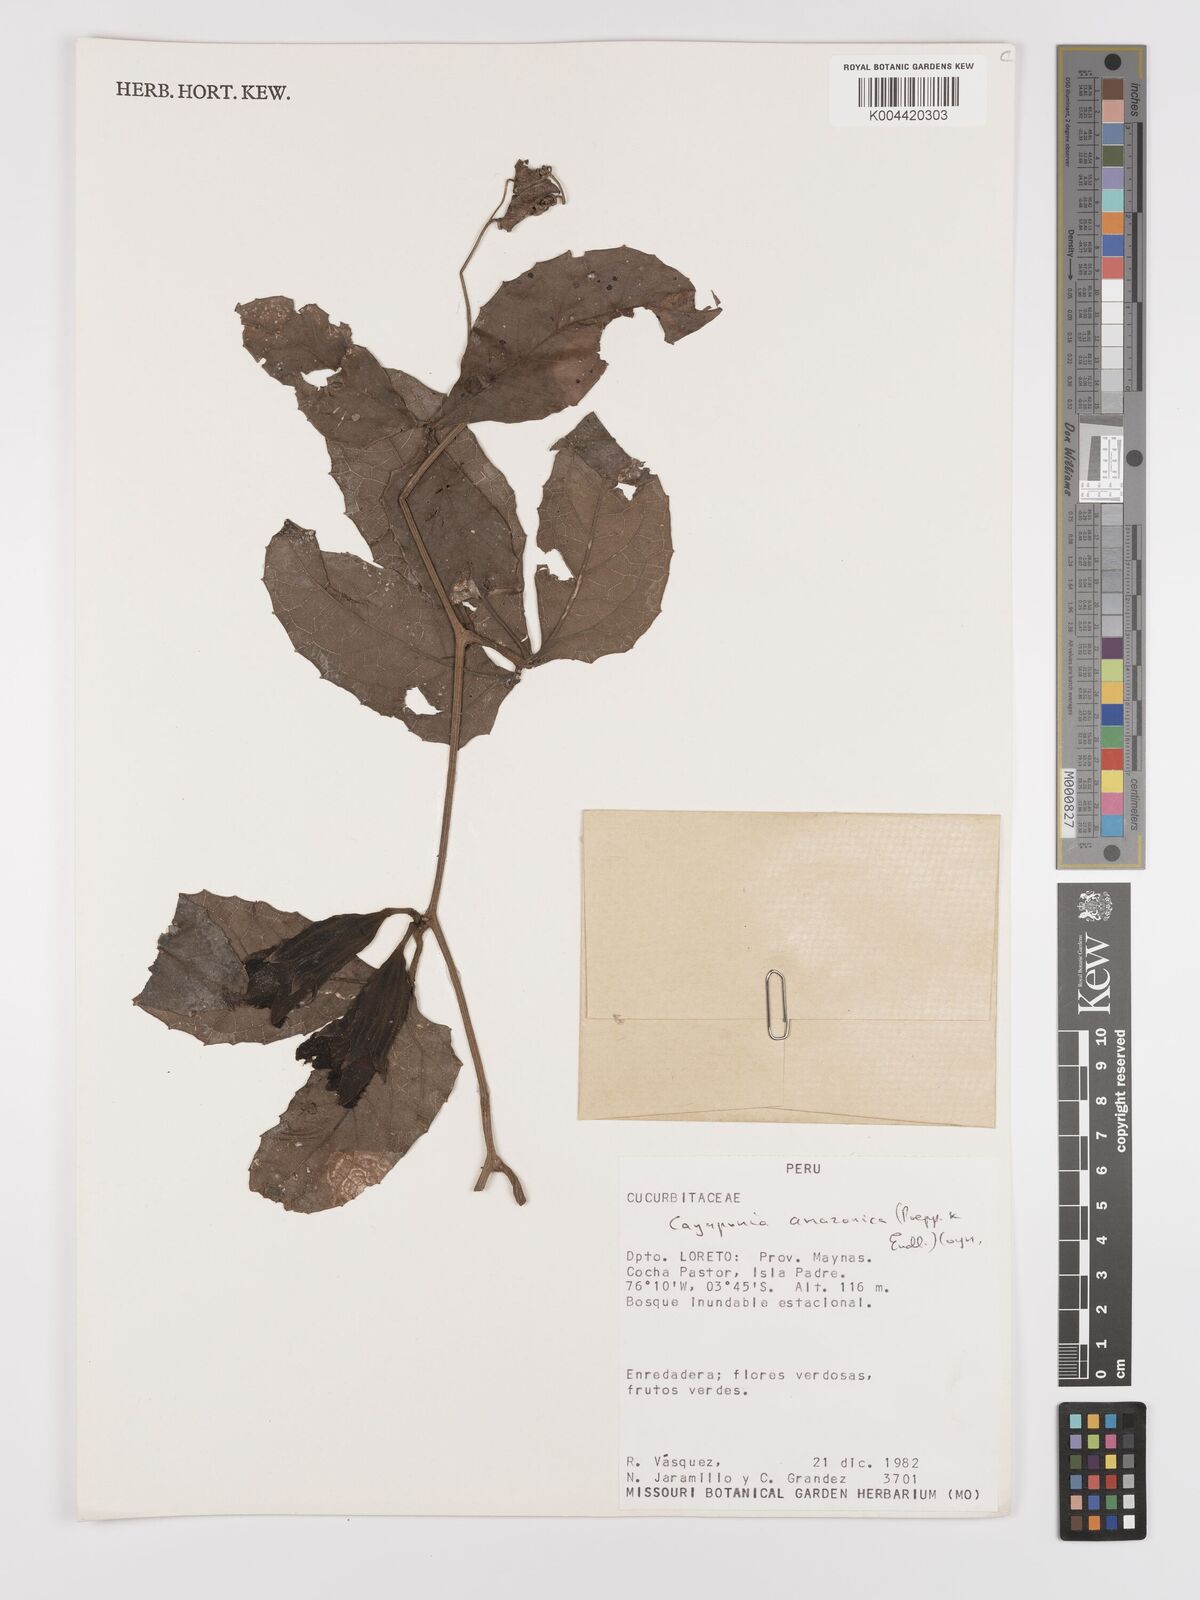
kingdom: Plantae
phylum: Tracheophyta
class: Magnoliopsida
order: Cucurbitales
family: Cucurbitaceae
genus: Cayaponia
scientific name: Cayaponia amazonica
